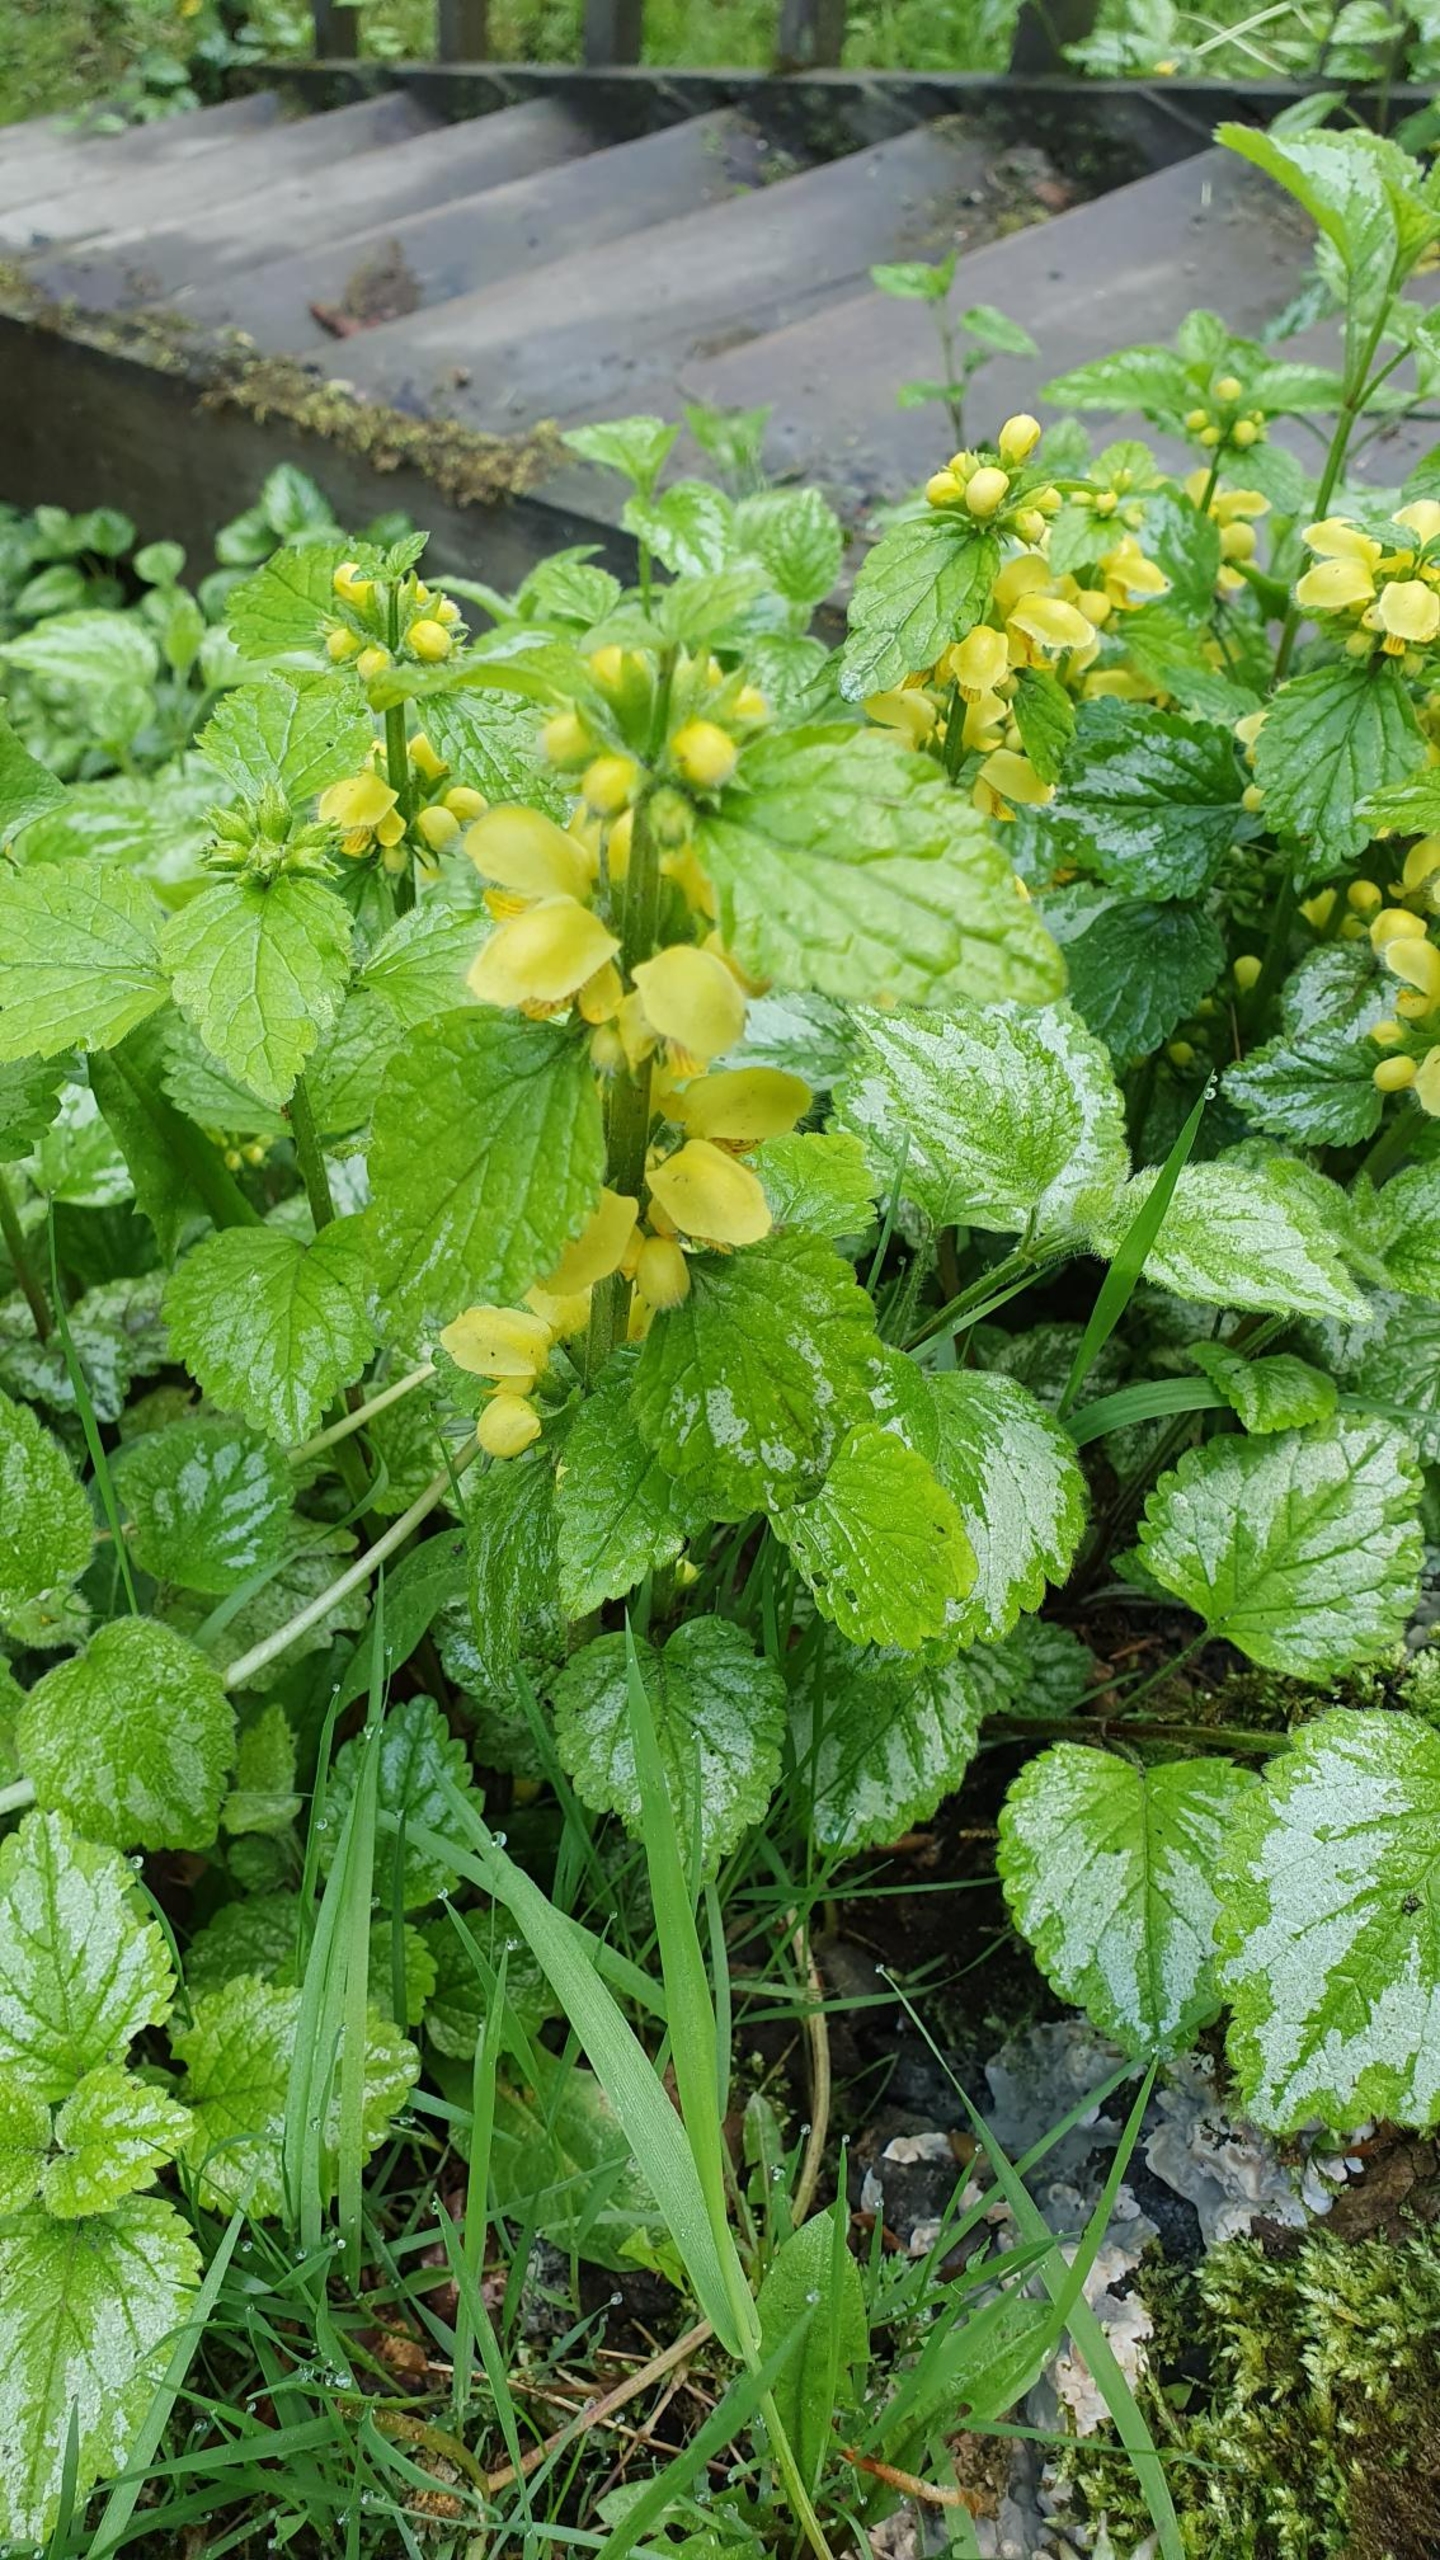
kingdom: Plantae
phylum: Tracheophyta
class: Magnoliopsida
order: Lamiales
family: Lamiaceae
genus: Lamium
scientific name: Lamium galeobdolon
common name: Guldnælde
